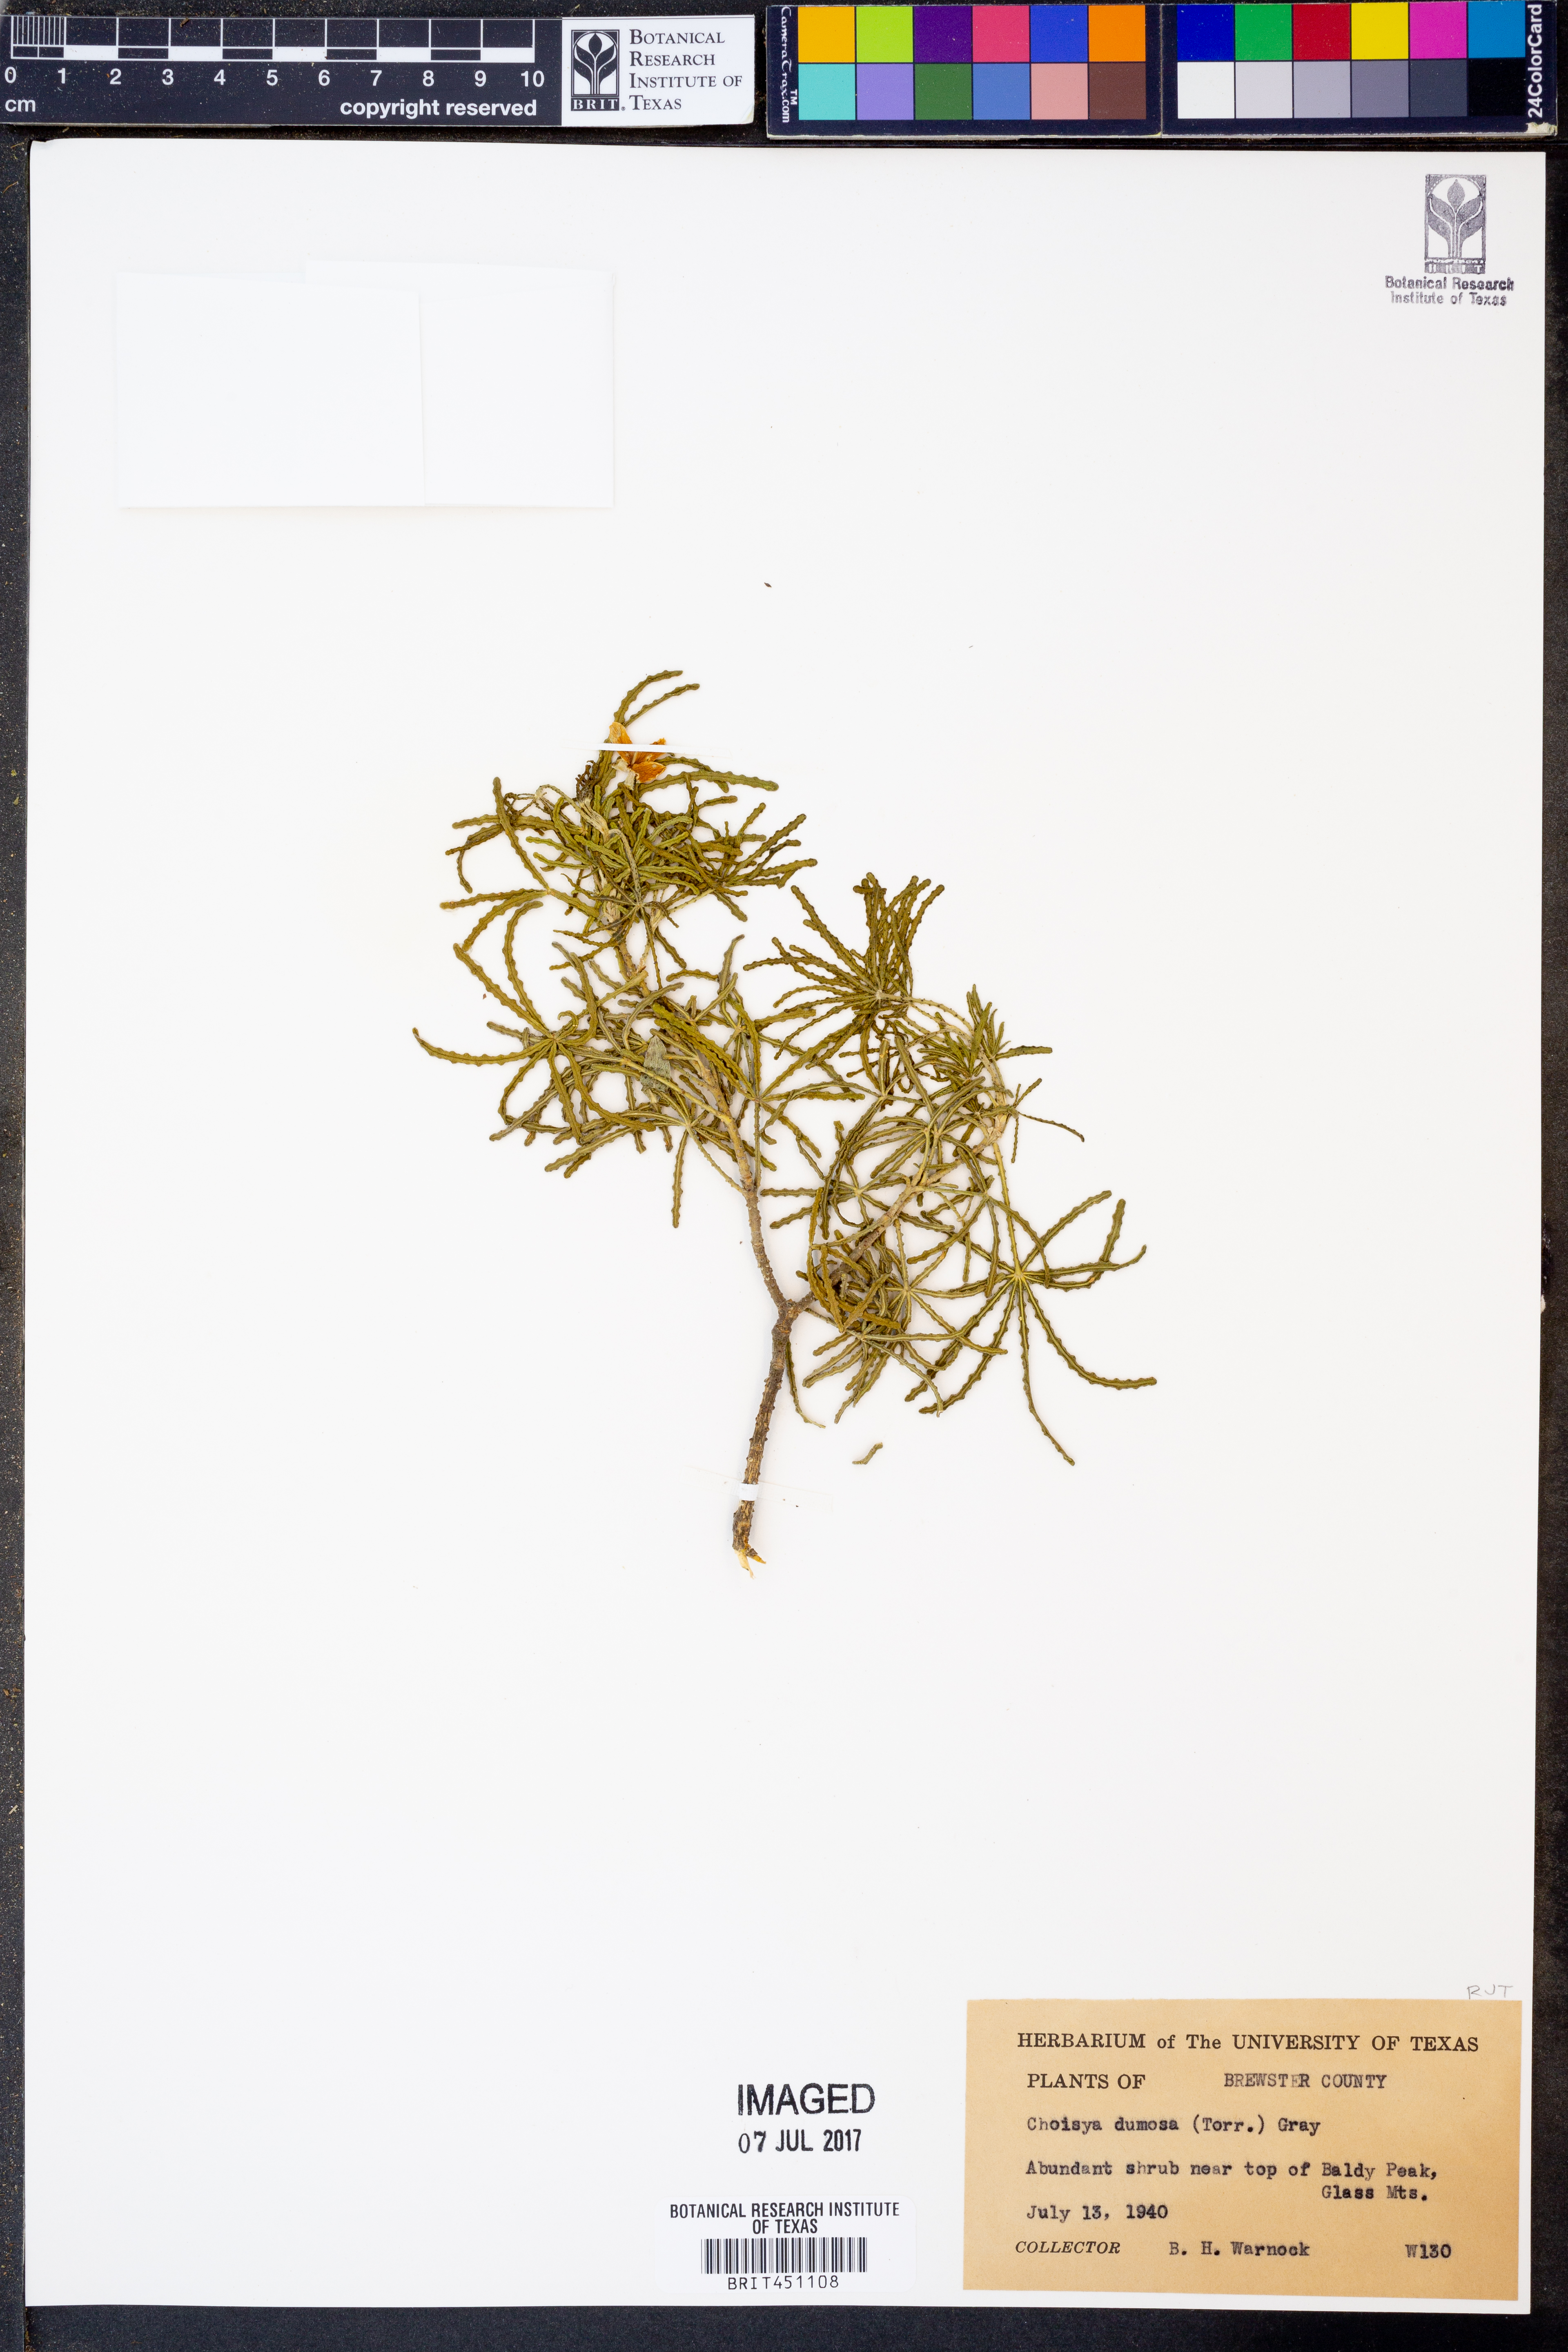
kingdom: Plantae
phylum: Tracheophyta
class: Magnoliopsida
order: Sapindales
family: Rutaceae
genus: Choisya
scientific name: Choisya dumosa
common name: Mexican-orange
